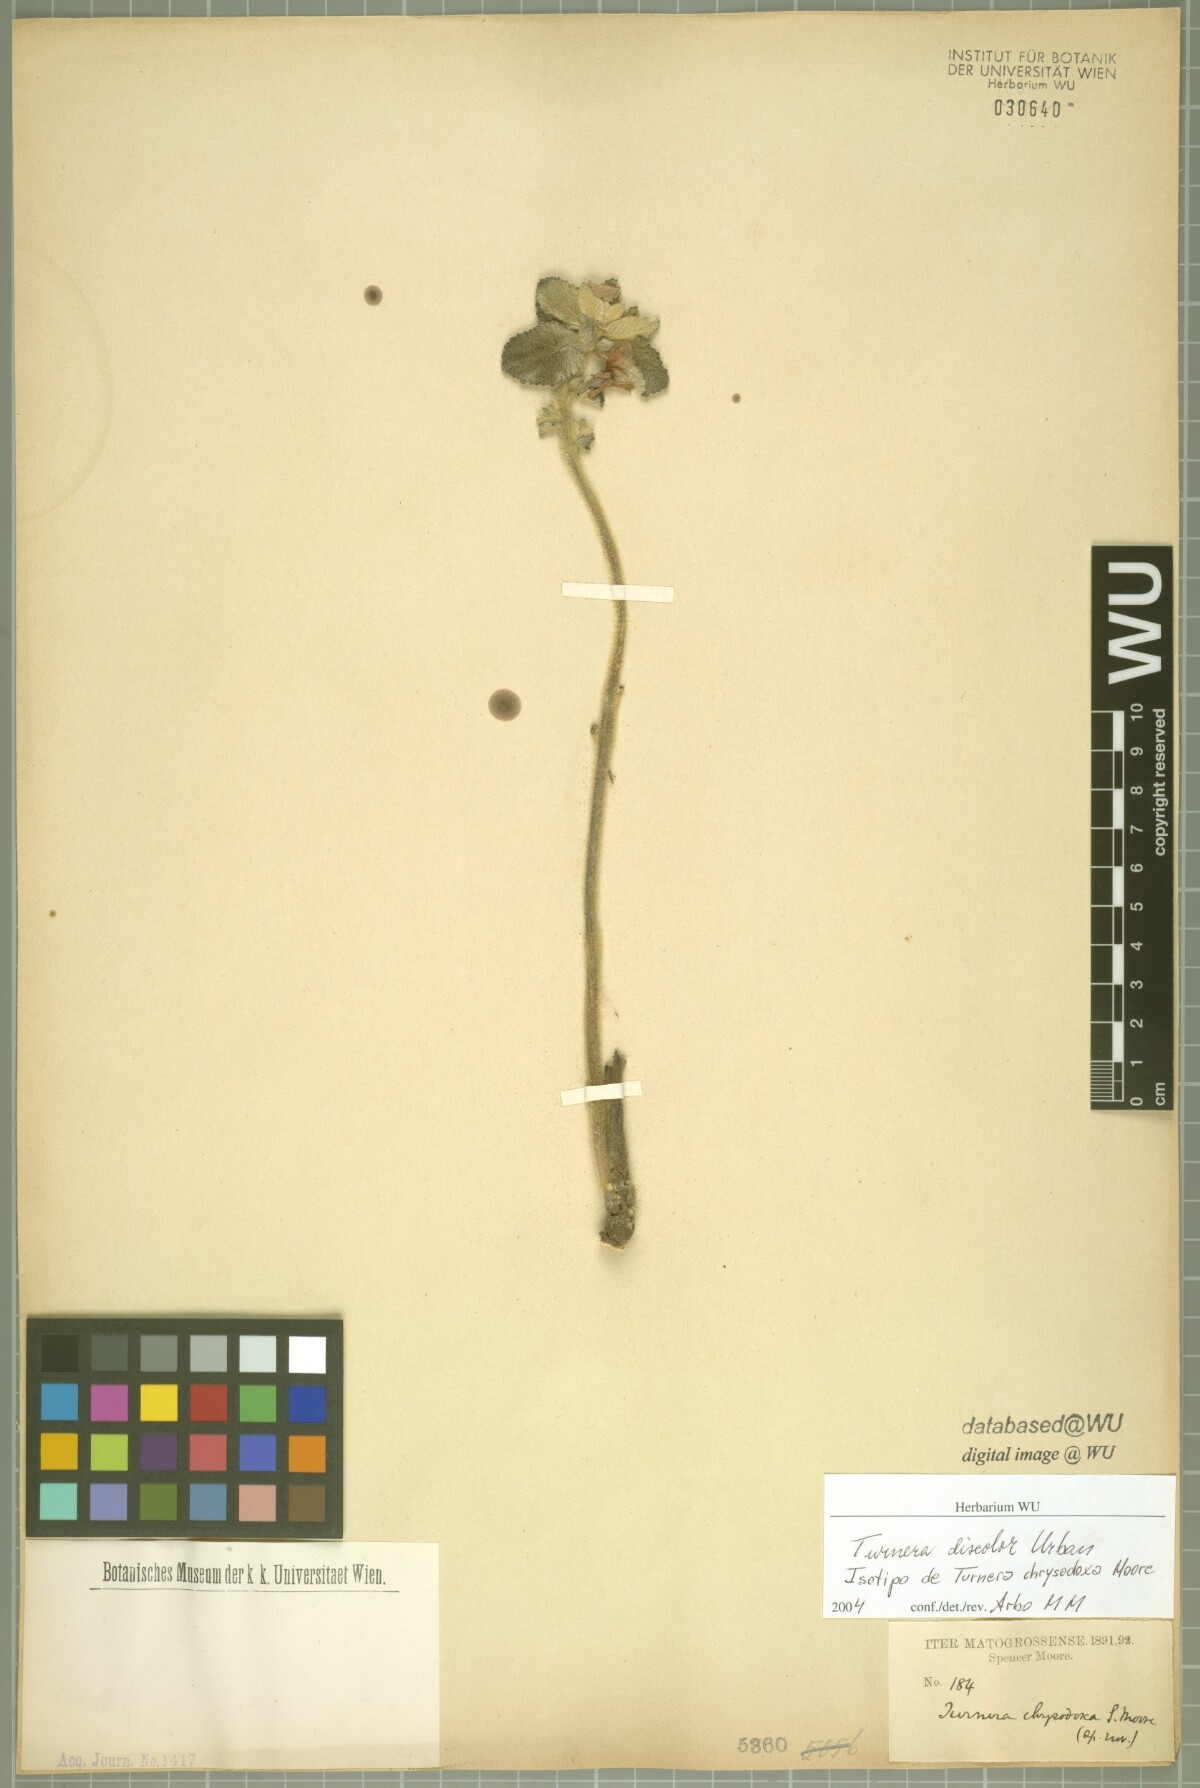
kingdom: Plantae
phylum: Tracheophyta
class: Magnoliopsida
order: Malpighiales
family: Turneraceae
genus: Turnera
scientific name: Turnera discolor
